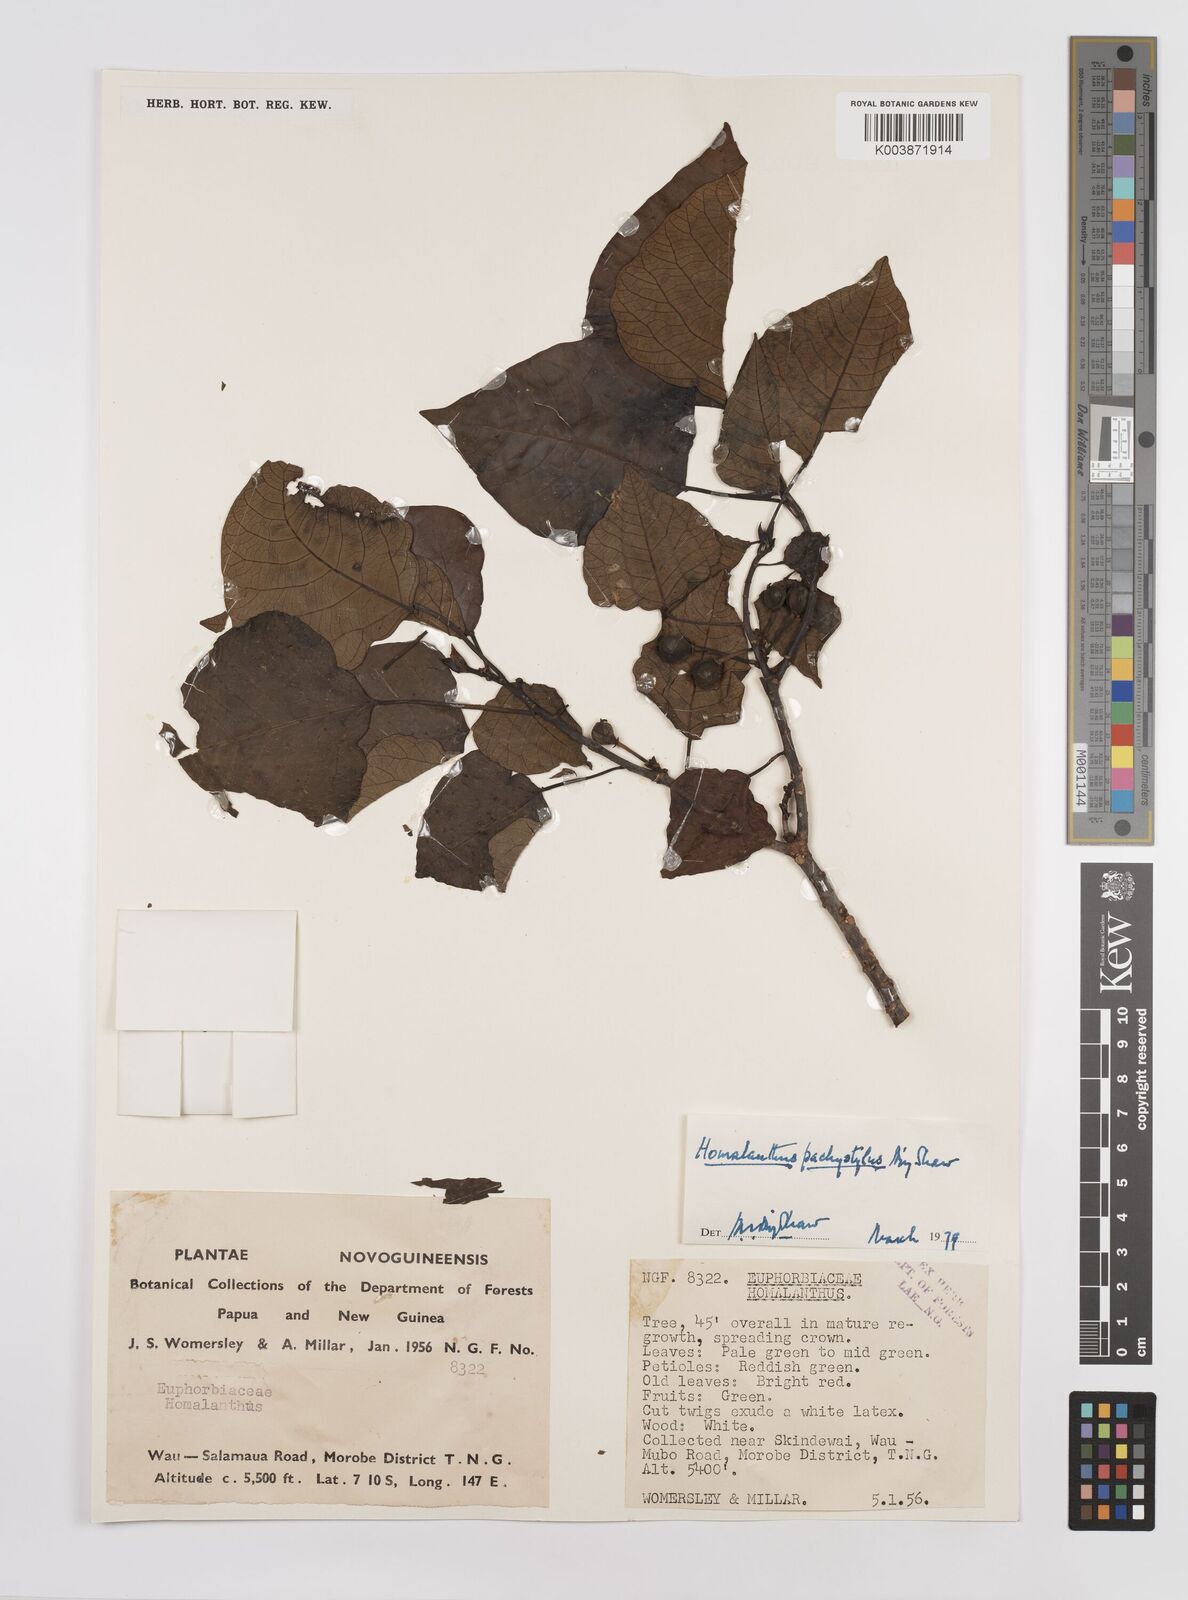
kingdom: Plantae
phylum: Tracheophyta
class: Magnoliopsida
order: Malpighiales
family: Euphorbiaceae
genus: Homalanthus
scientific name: Homalanthus novoguineensis
